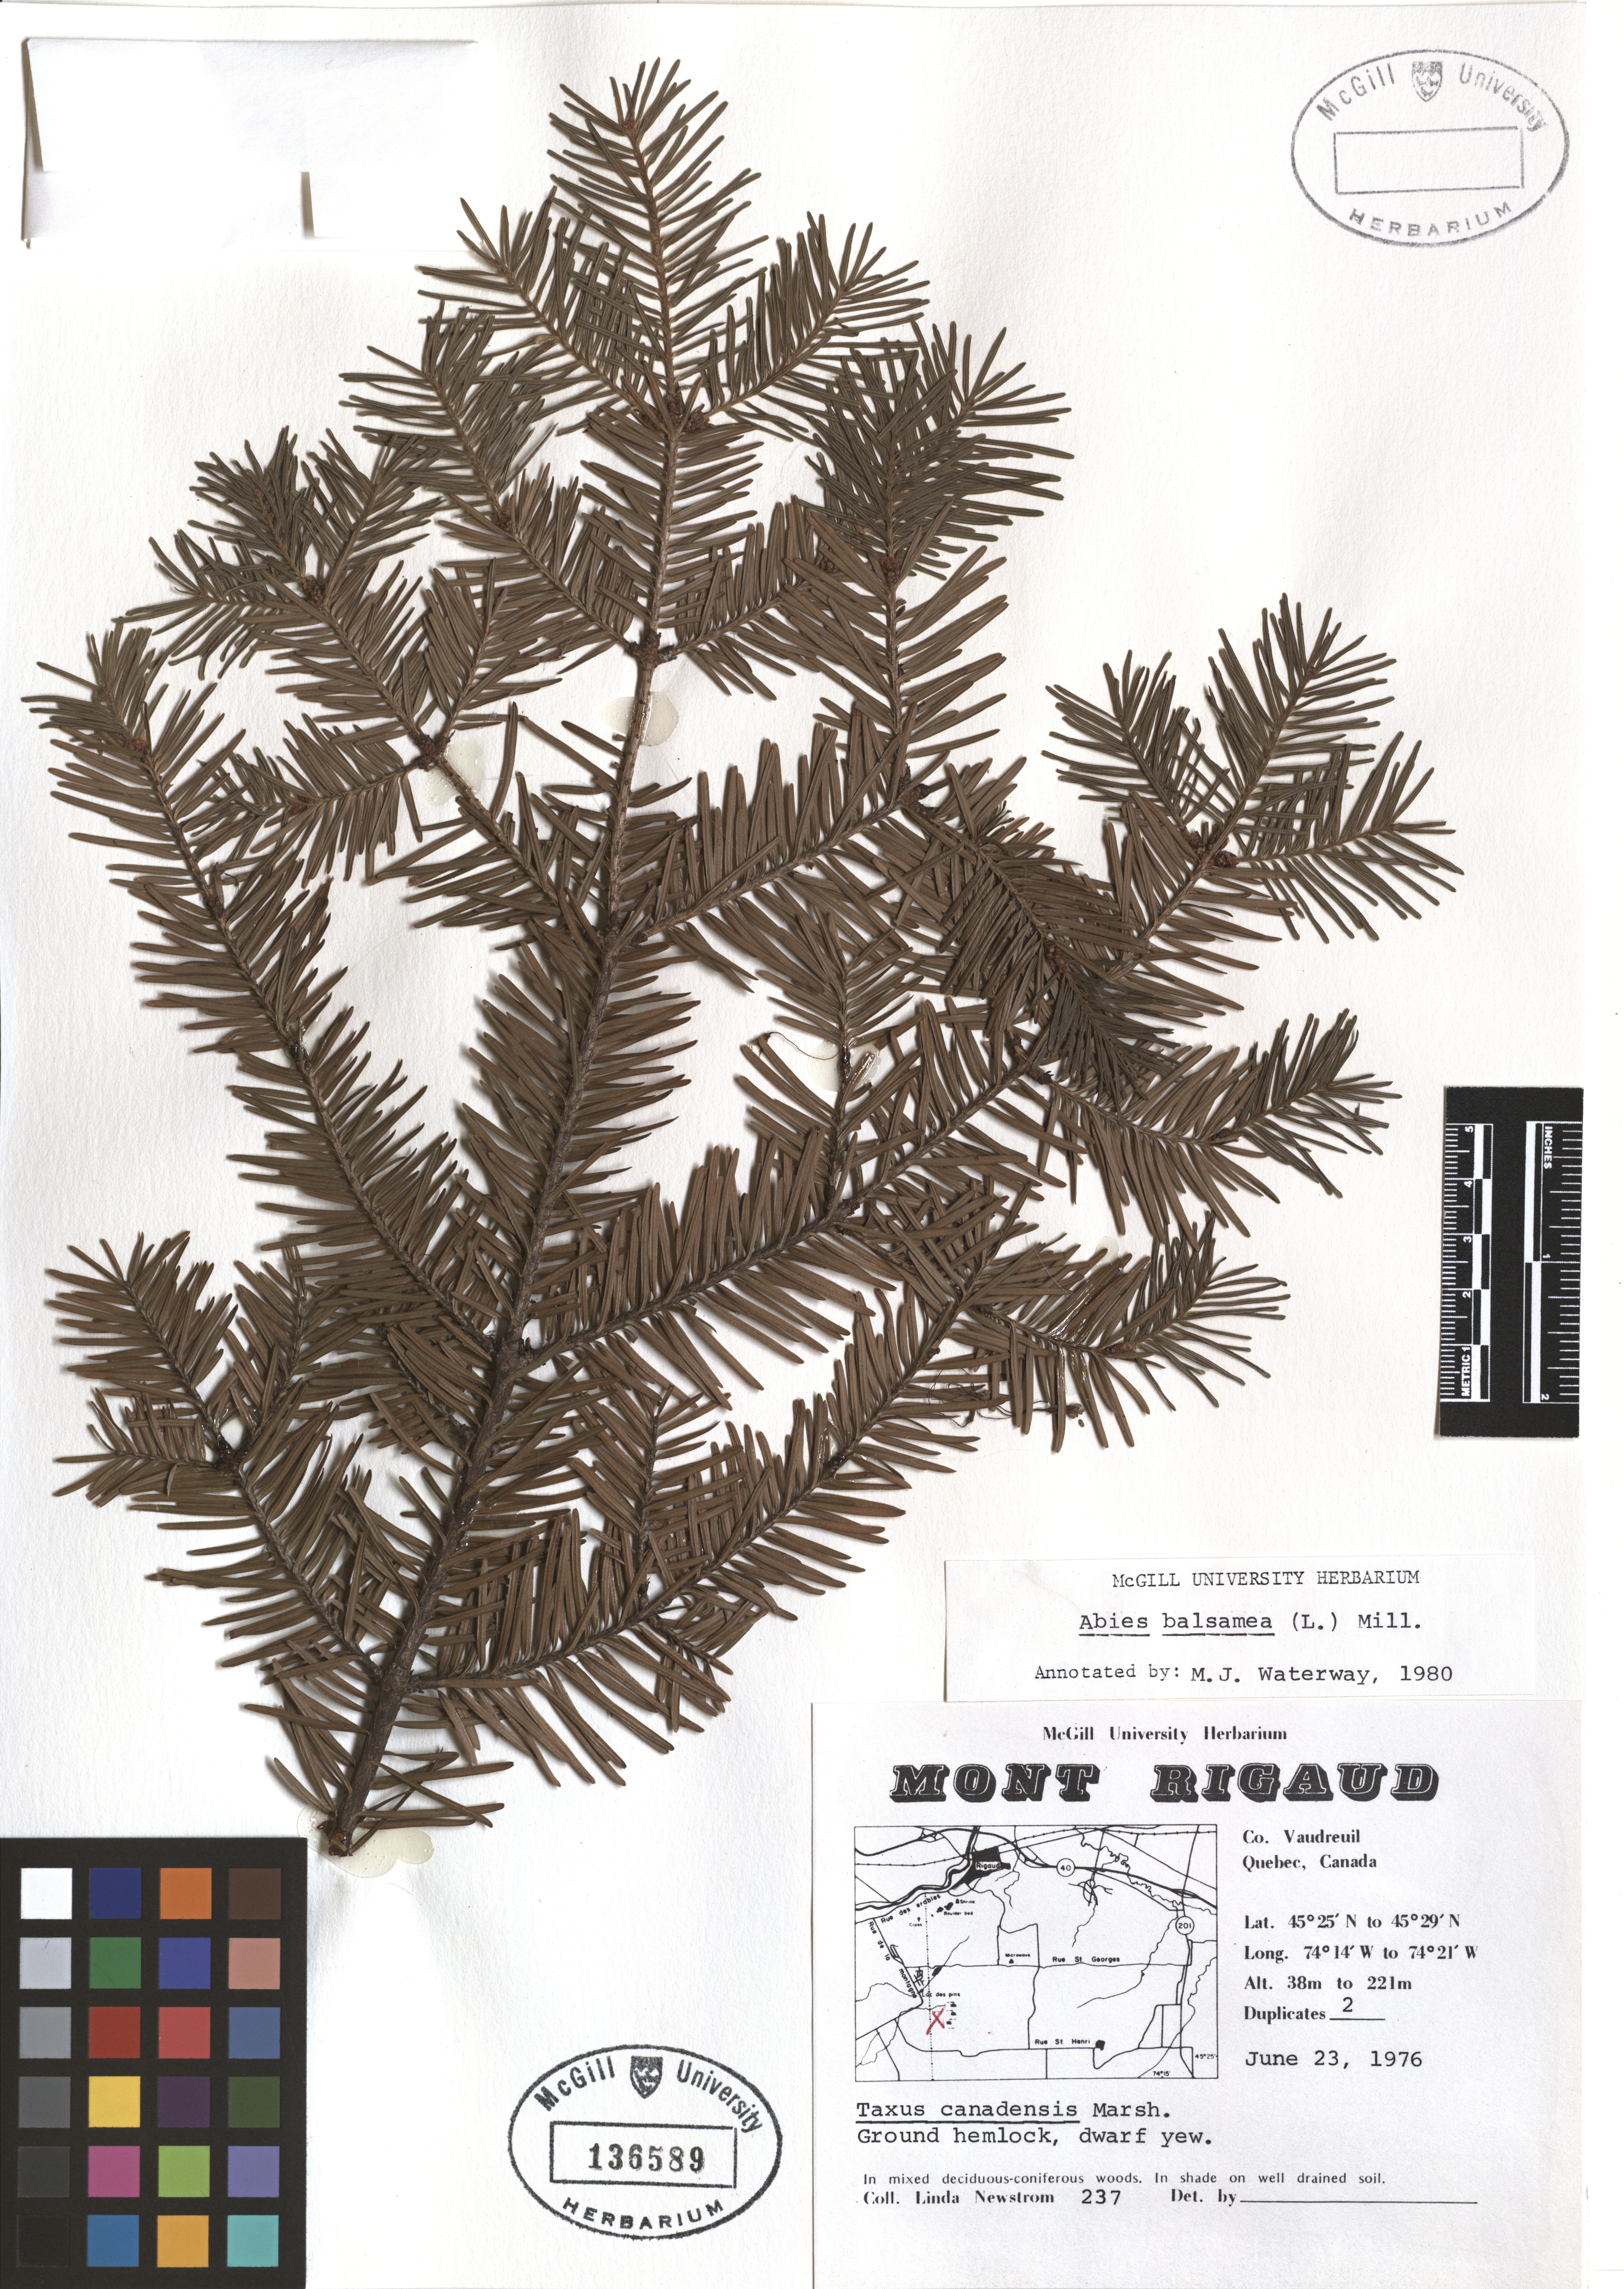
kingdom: Plantae
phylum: Tracheophyta
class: Pinopsida
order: Pinales
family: Pinaceae
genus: Abies
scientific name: Abies balsamea
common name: Balsam fir
